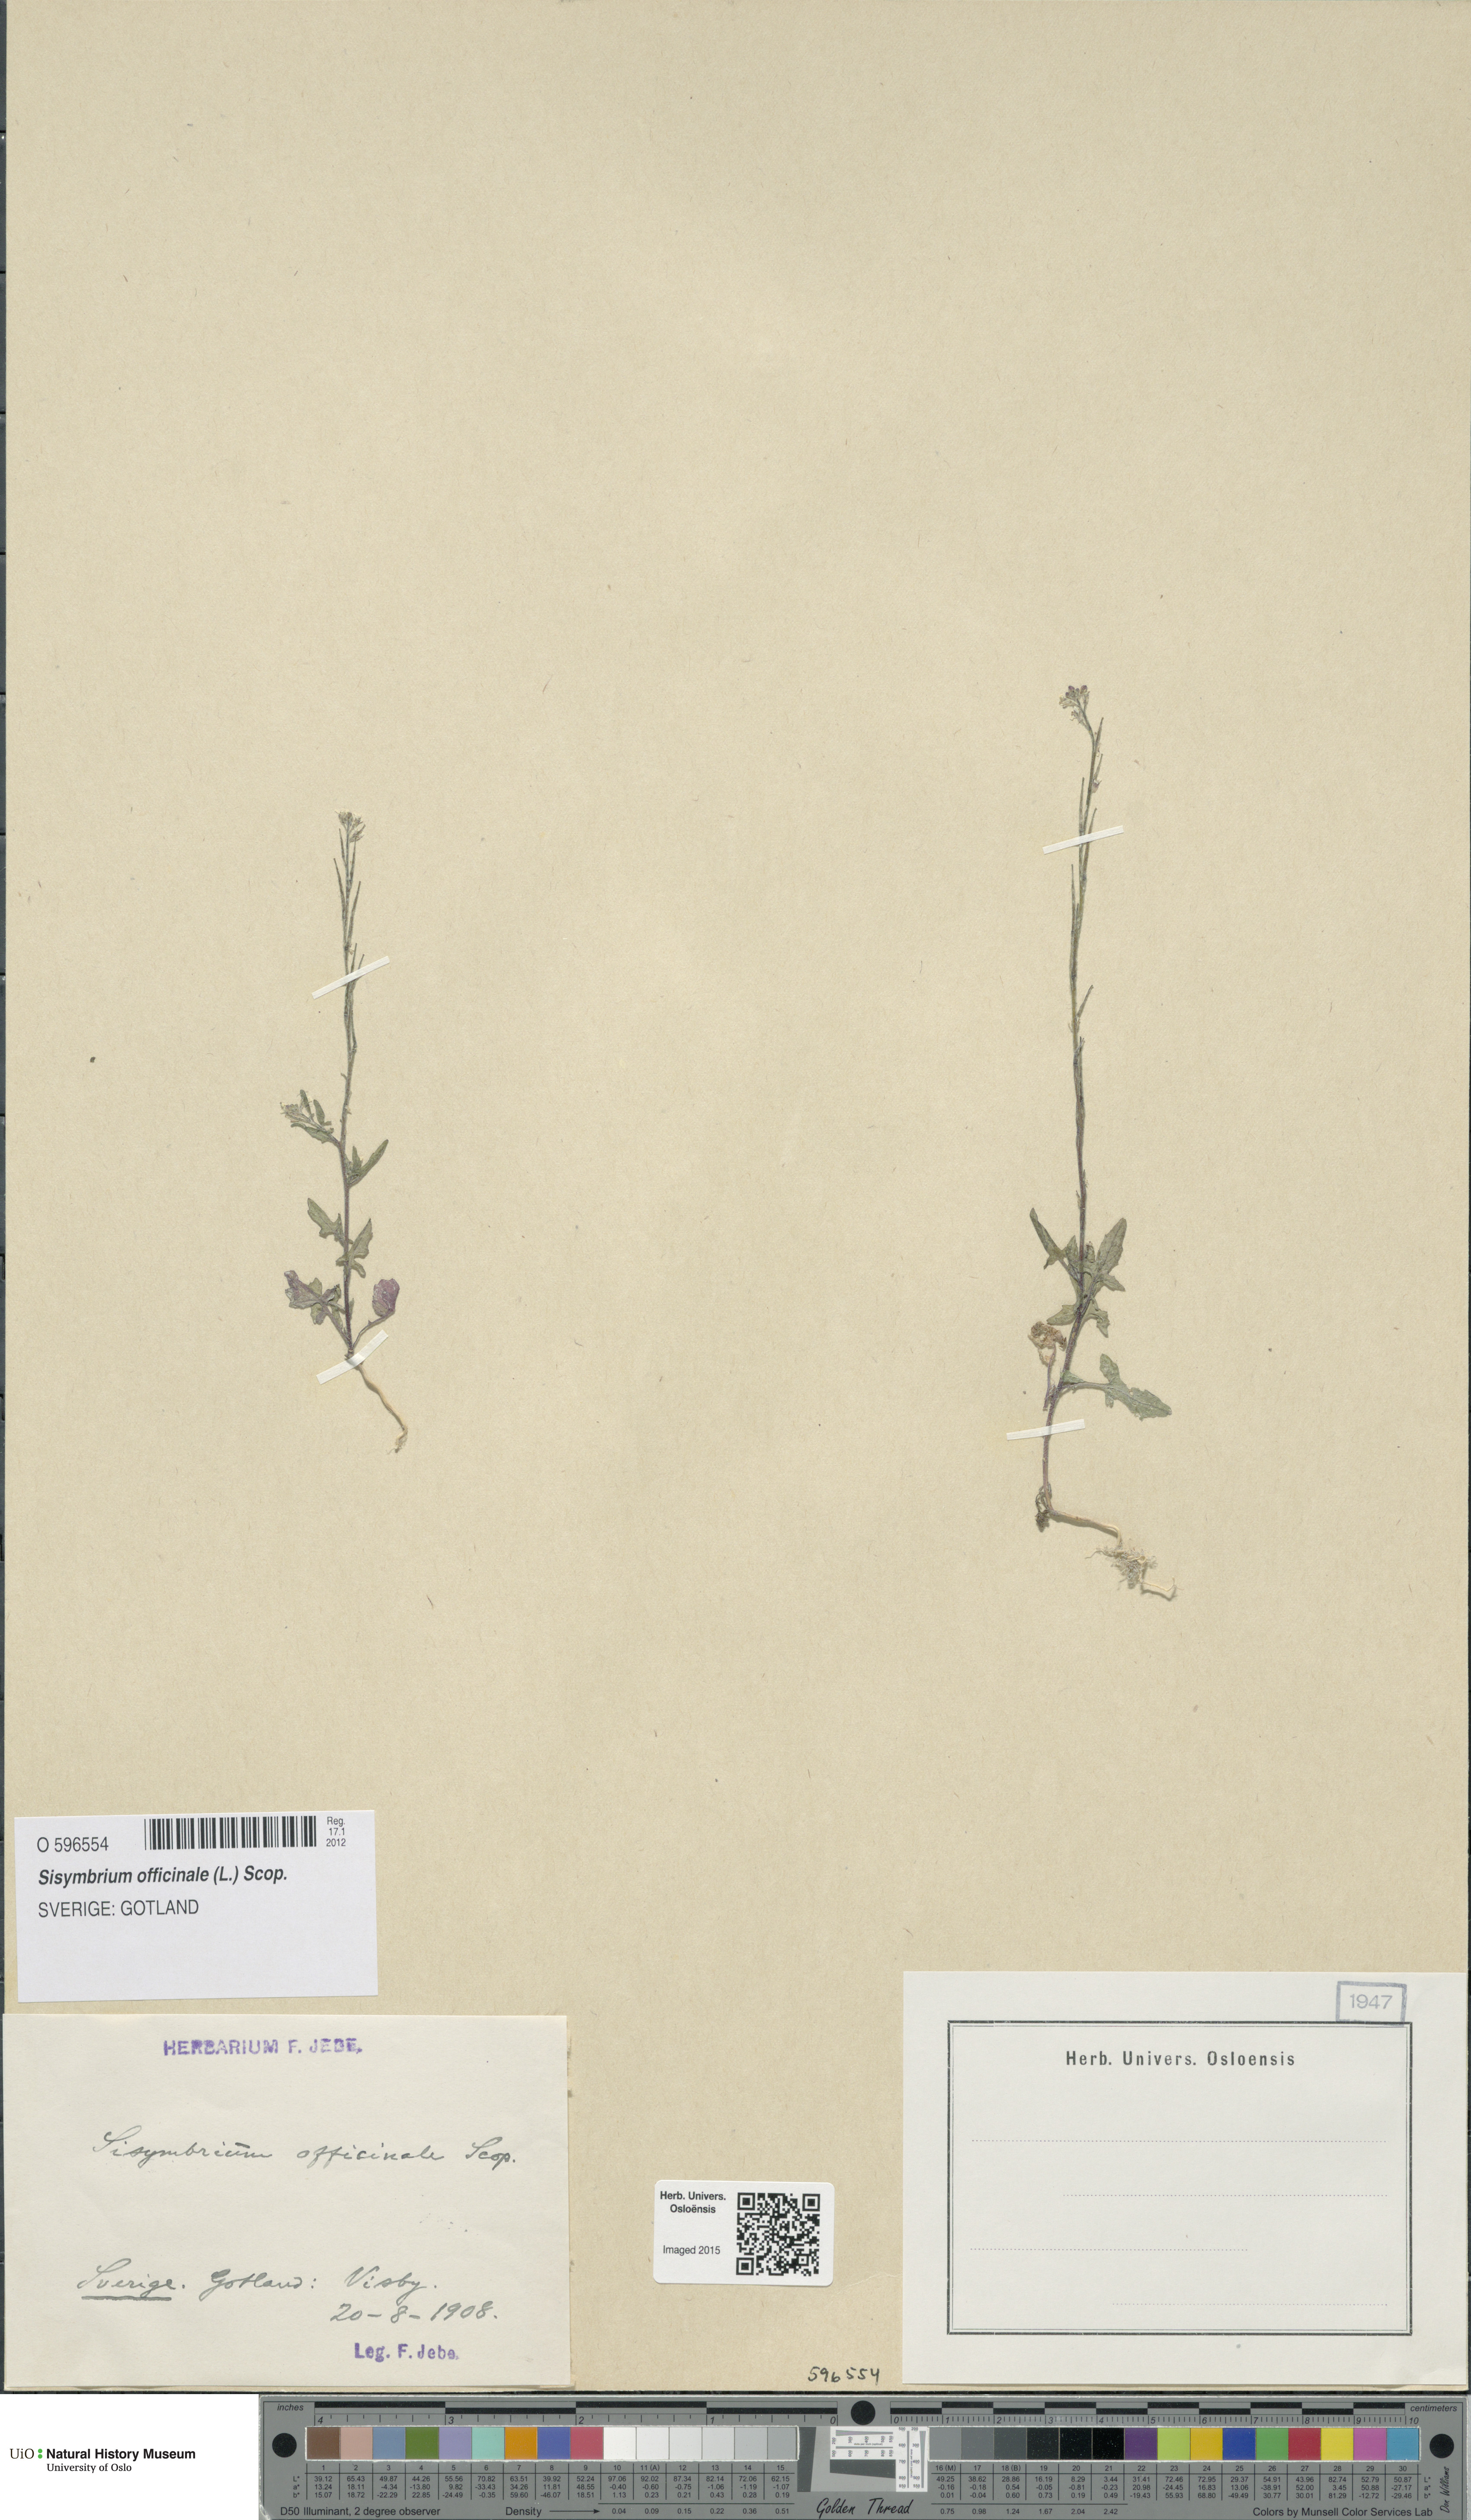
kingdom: Plantae
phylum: Tracheophyta
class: Magnoliopsida
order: Brassicales
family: Brassicaceae
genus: Sisymbrium
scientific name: Sisymbrium officinale
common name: Hedge mustard
